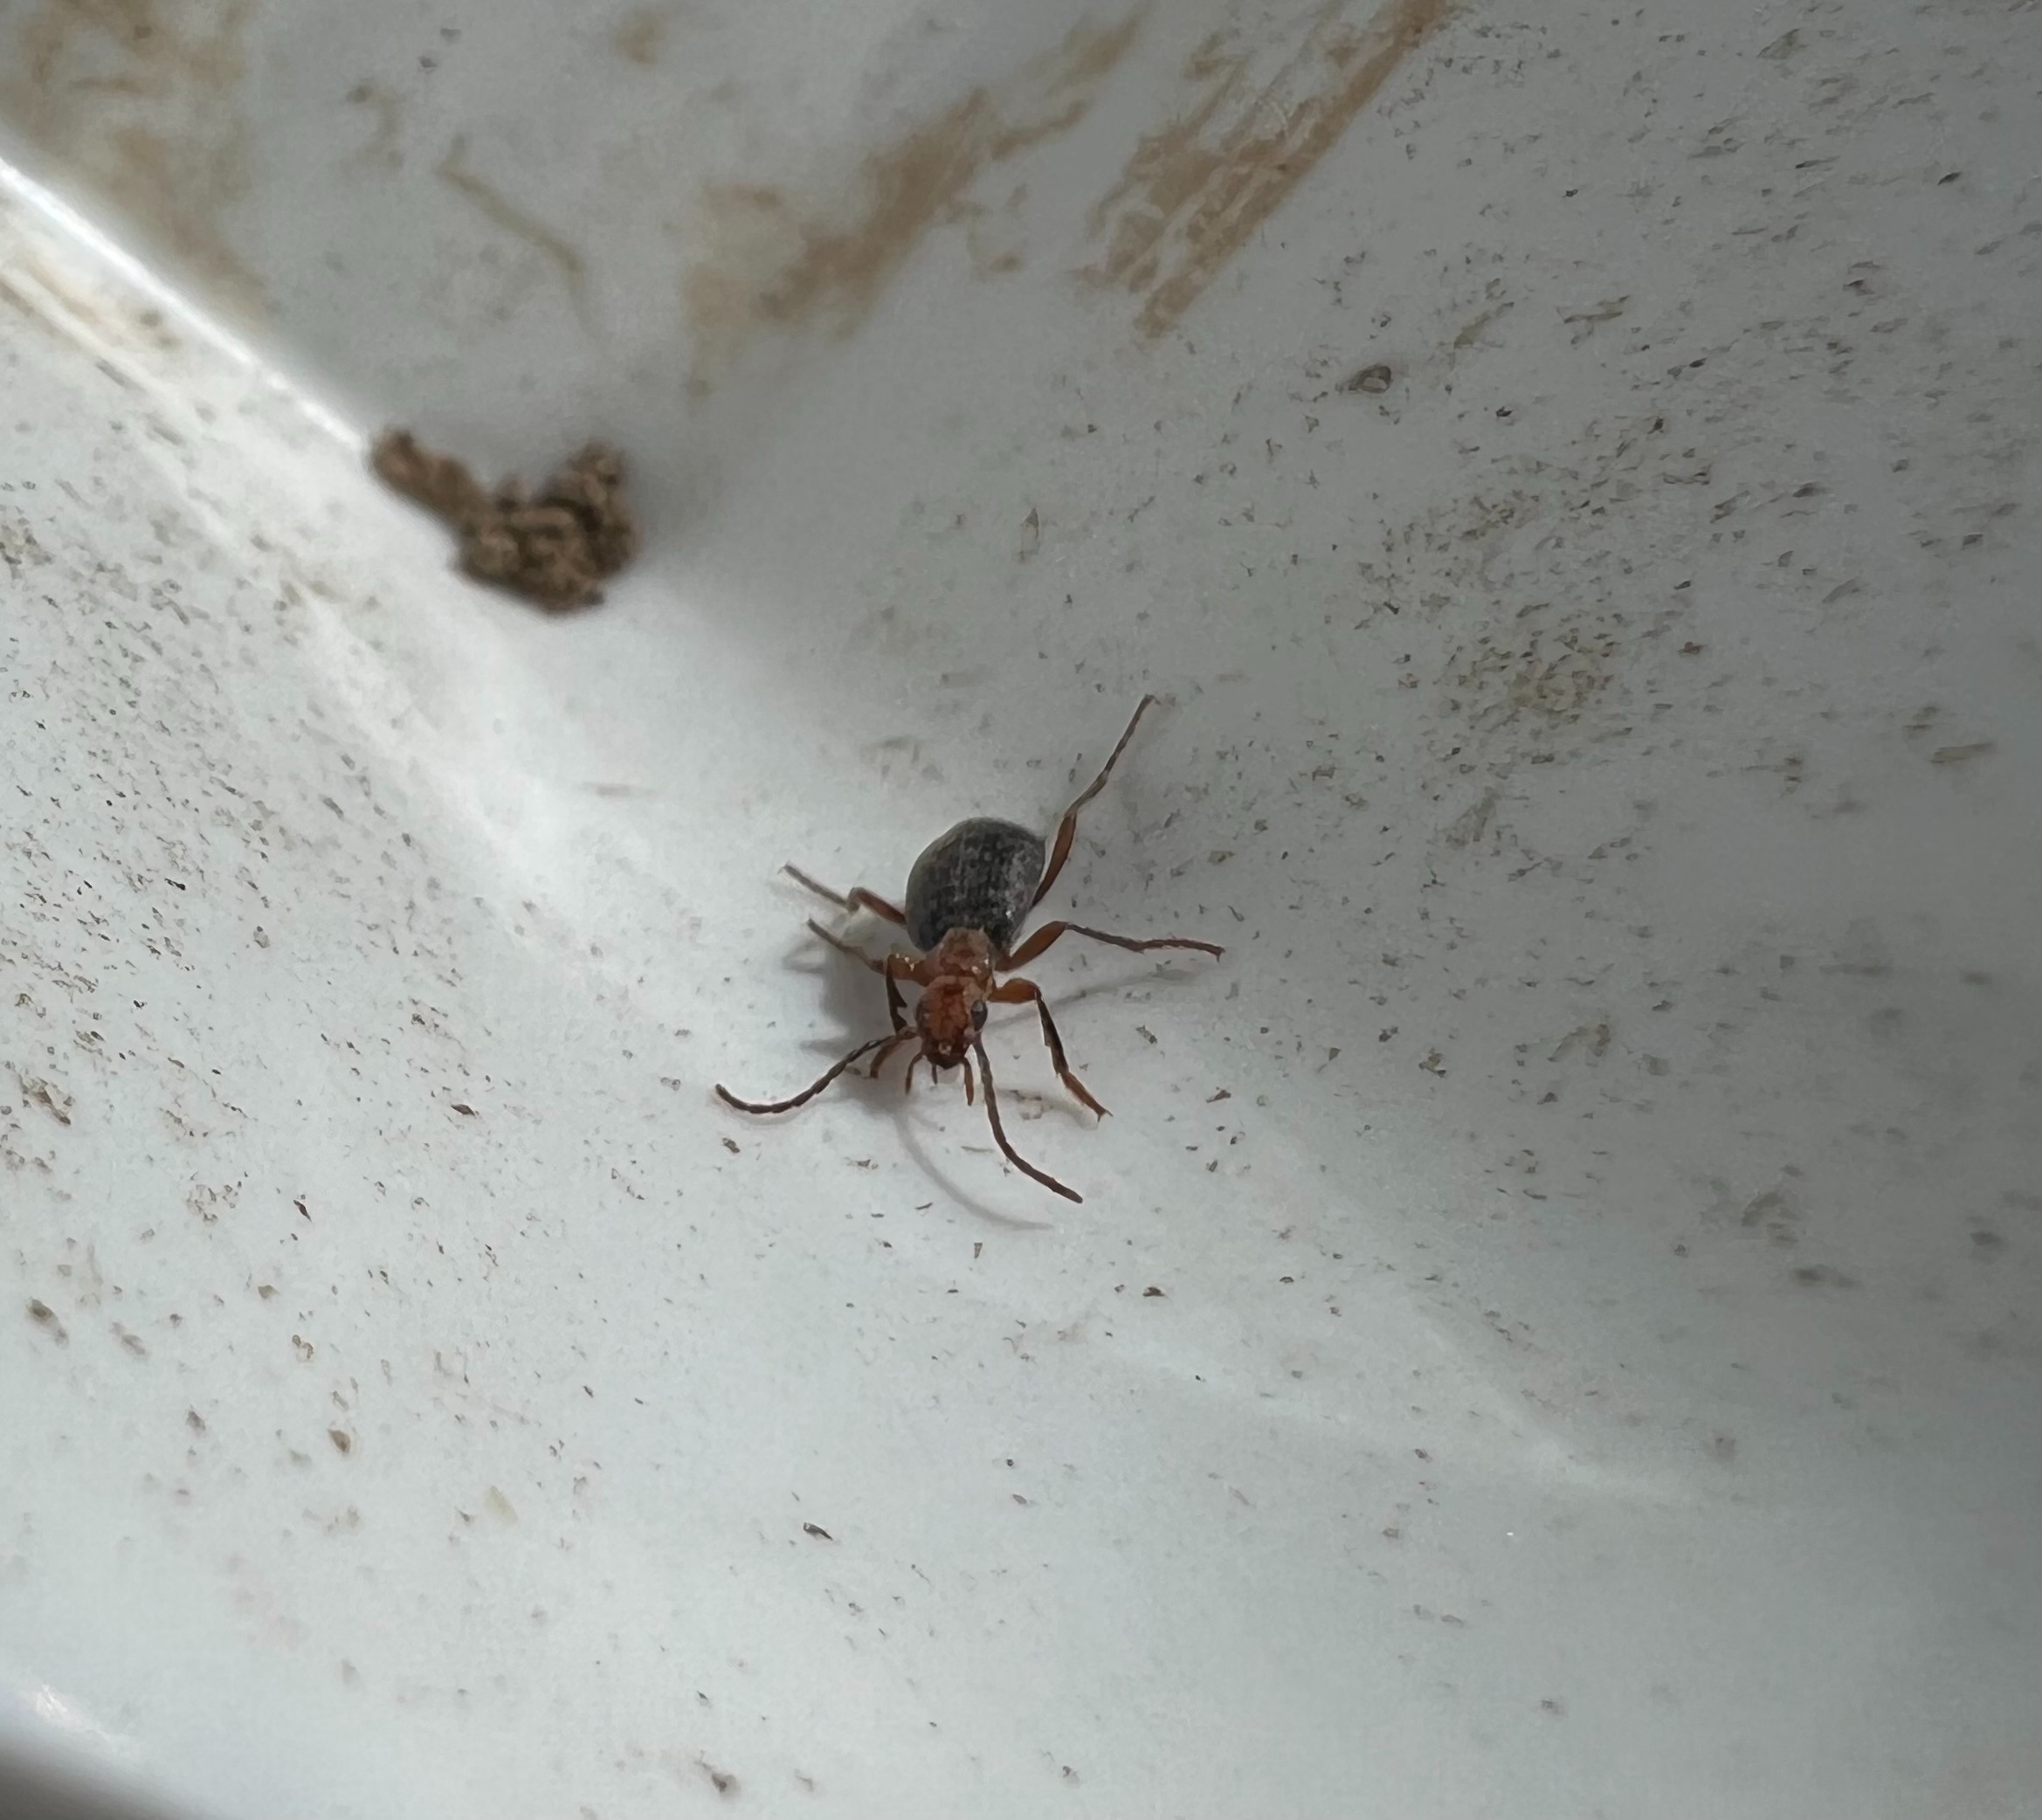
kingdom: Animalia
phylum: Arthropoda
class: Insecta
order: Coleoptera
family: Carabidae
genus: Brachinus
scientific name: Brachinus crepitans
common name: Bombarderbille
